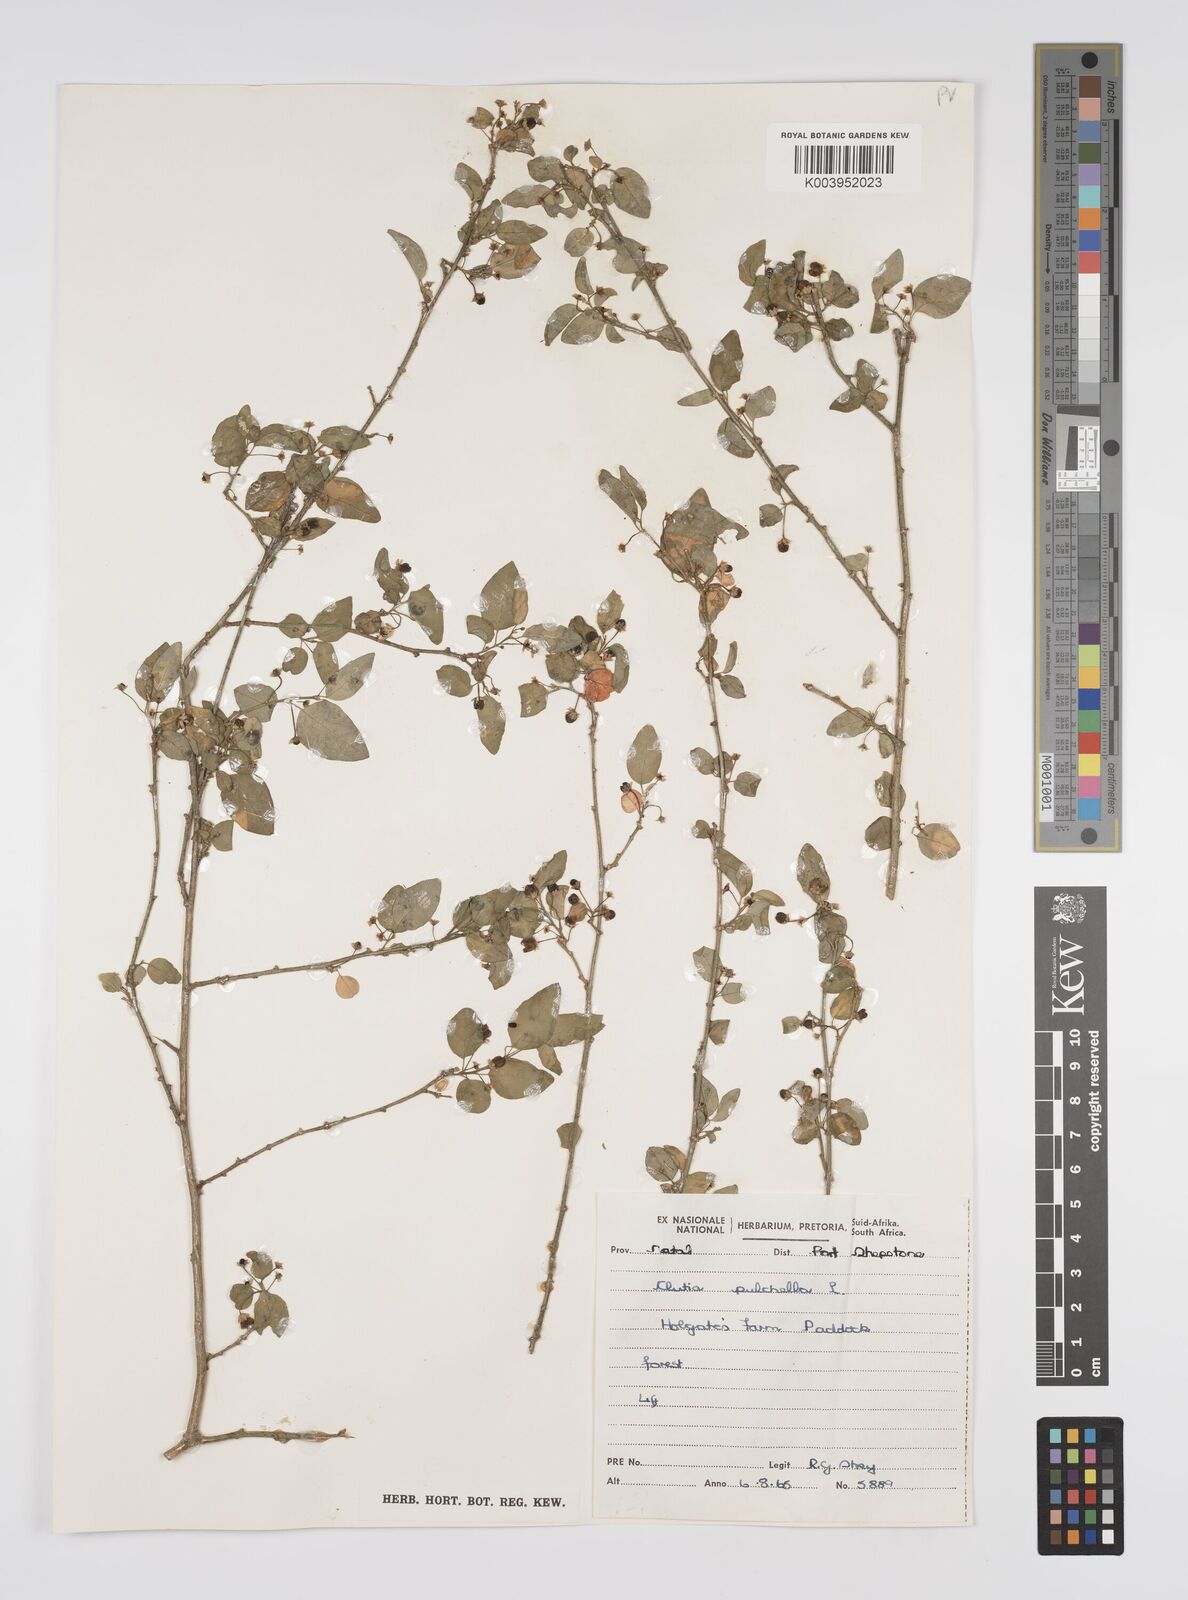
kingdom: Plantae
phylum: Tracheophyta
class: Magnoliopsida
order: Malpighiales
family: Peraceae
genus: Clutia
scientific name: Clutia pulchella
